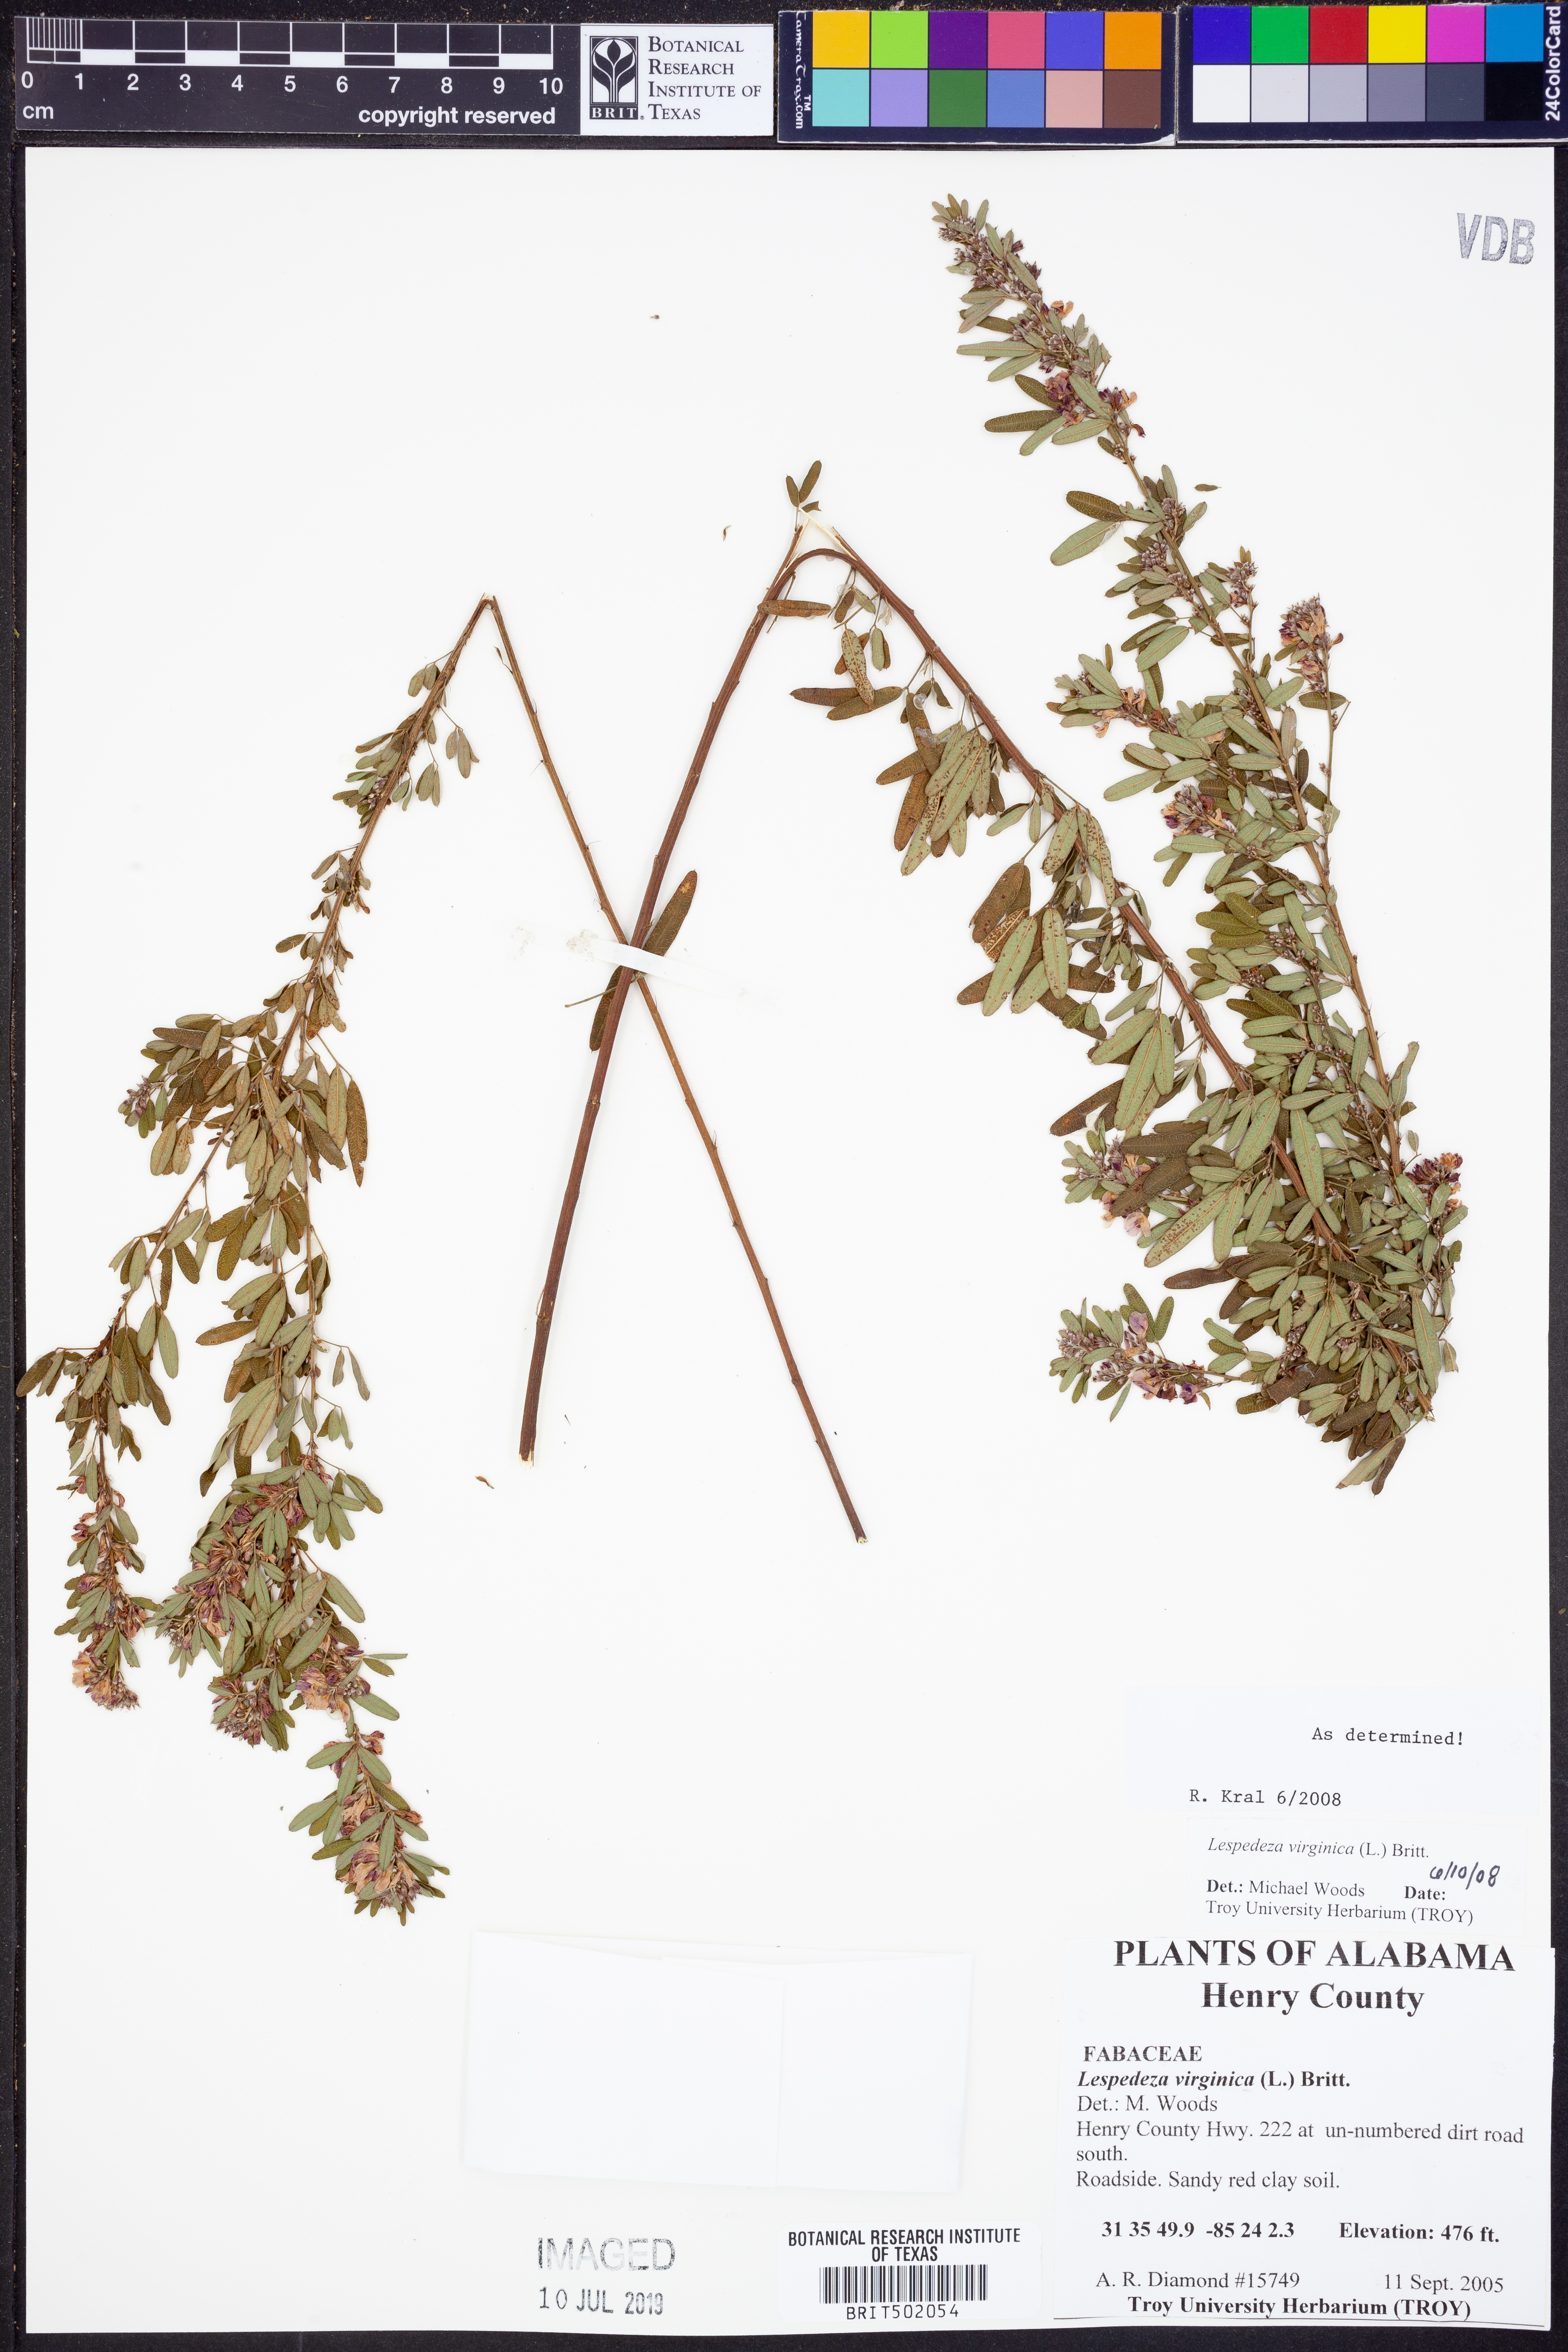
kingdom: Plantae
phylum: Tracheophyta
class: Magnoliopsida
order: Fabales
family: Fabaceae
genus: Lespedeza
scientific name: Lespedeza virginica
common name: Slender bush-clover
